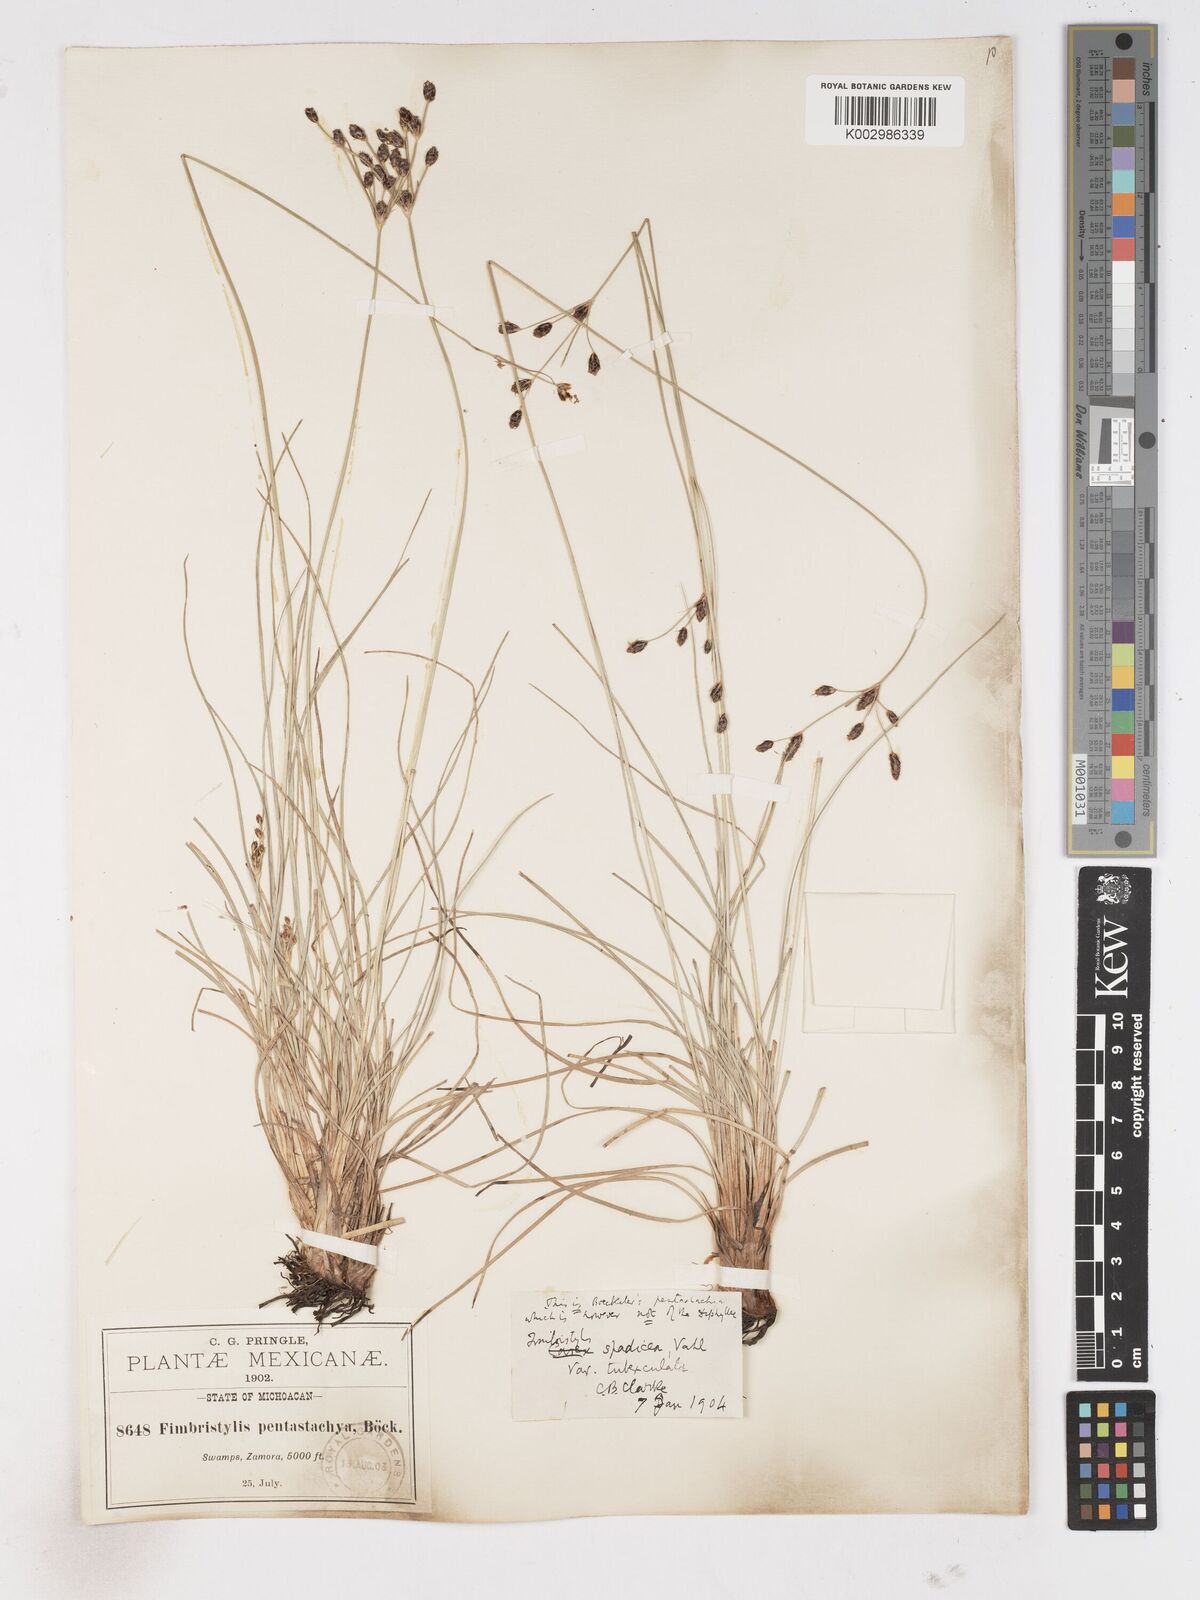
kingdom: Plantae
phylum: Tracheophyta
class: Liliopsida
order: Poales
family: Cyperaceae
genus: Fimbristylis
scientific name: Fimbristylis spadicea
